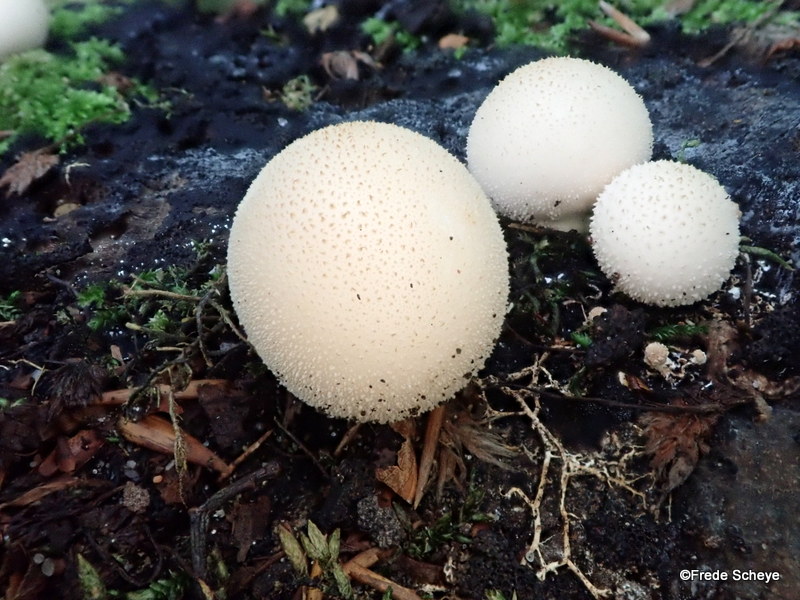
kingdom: Fungi
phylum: Basidiomycota
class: Agaricomycetes
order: Agaricales
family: Lycoperdaceae
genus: Apioperdon
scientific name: Apioperdon pyriforme
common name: pære-støvbold
